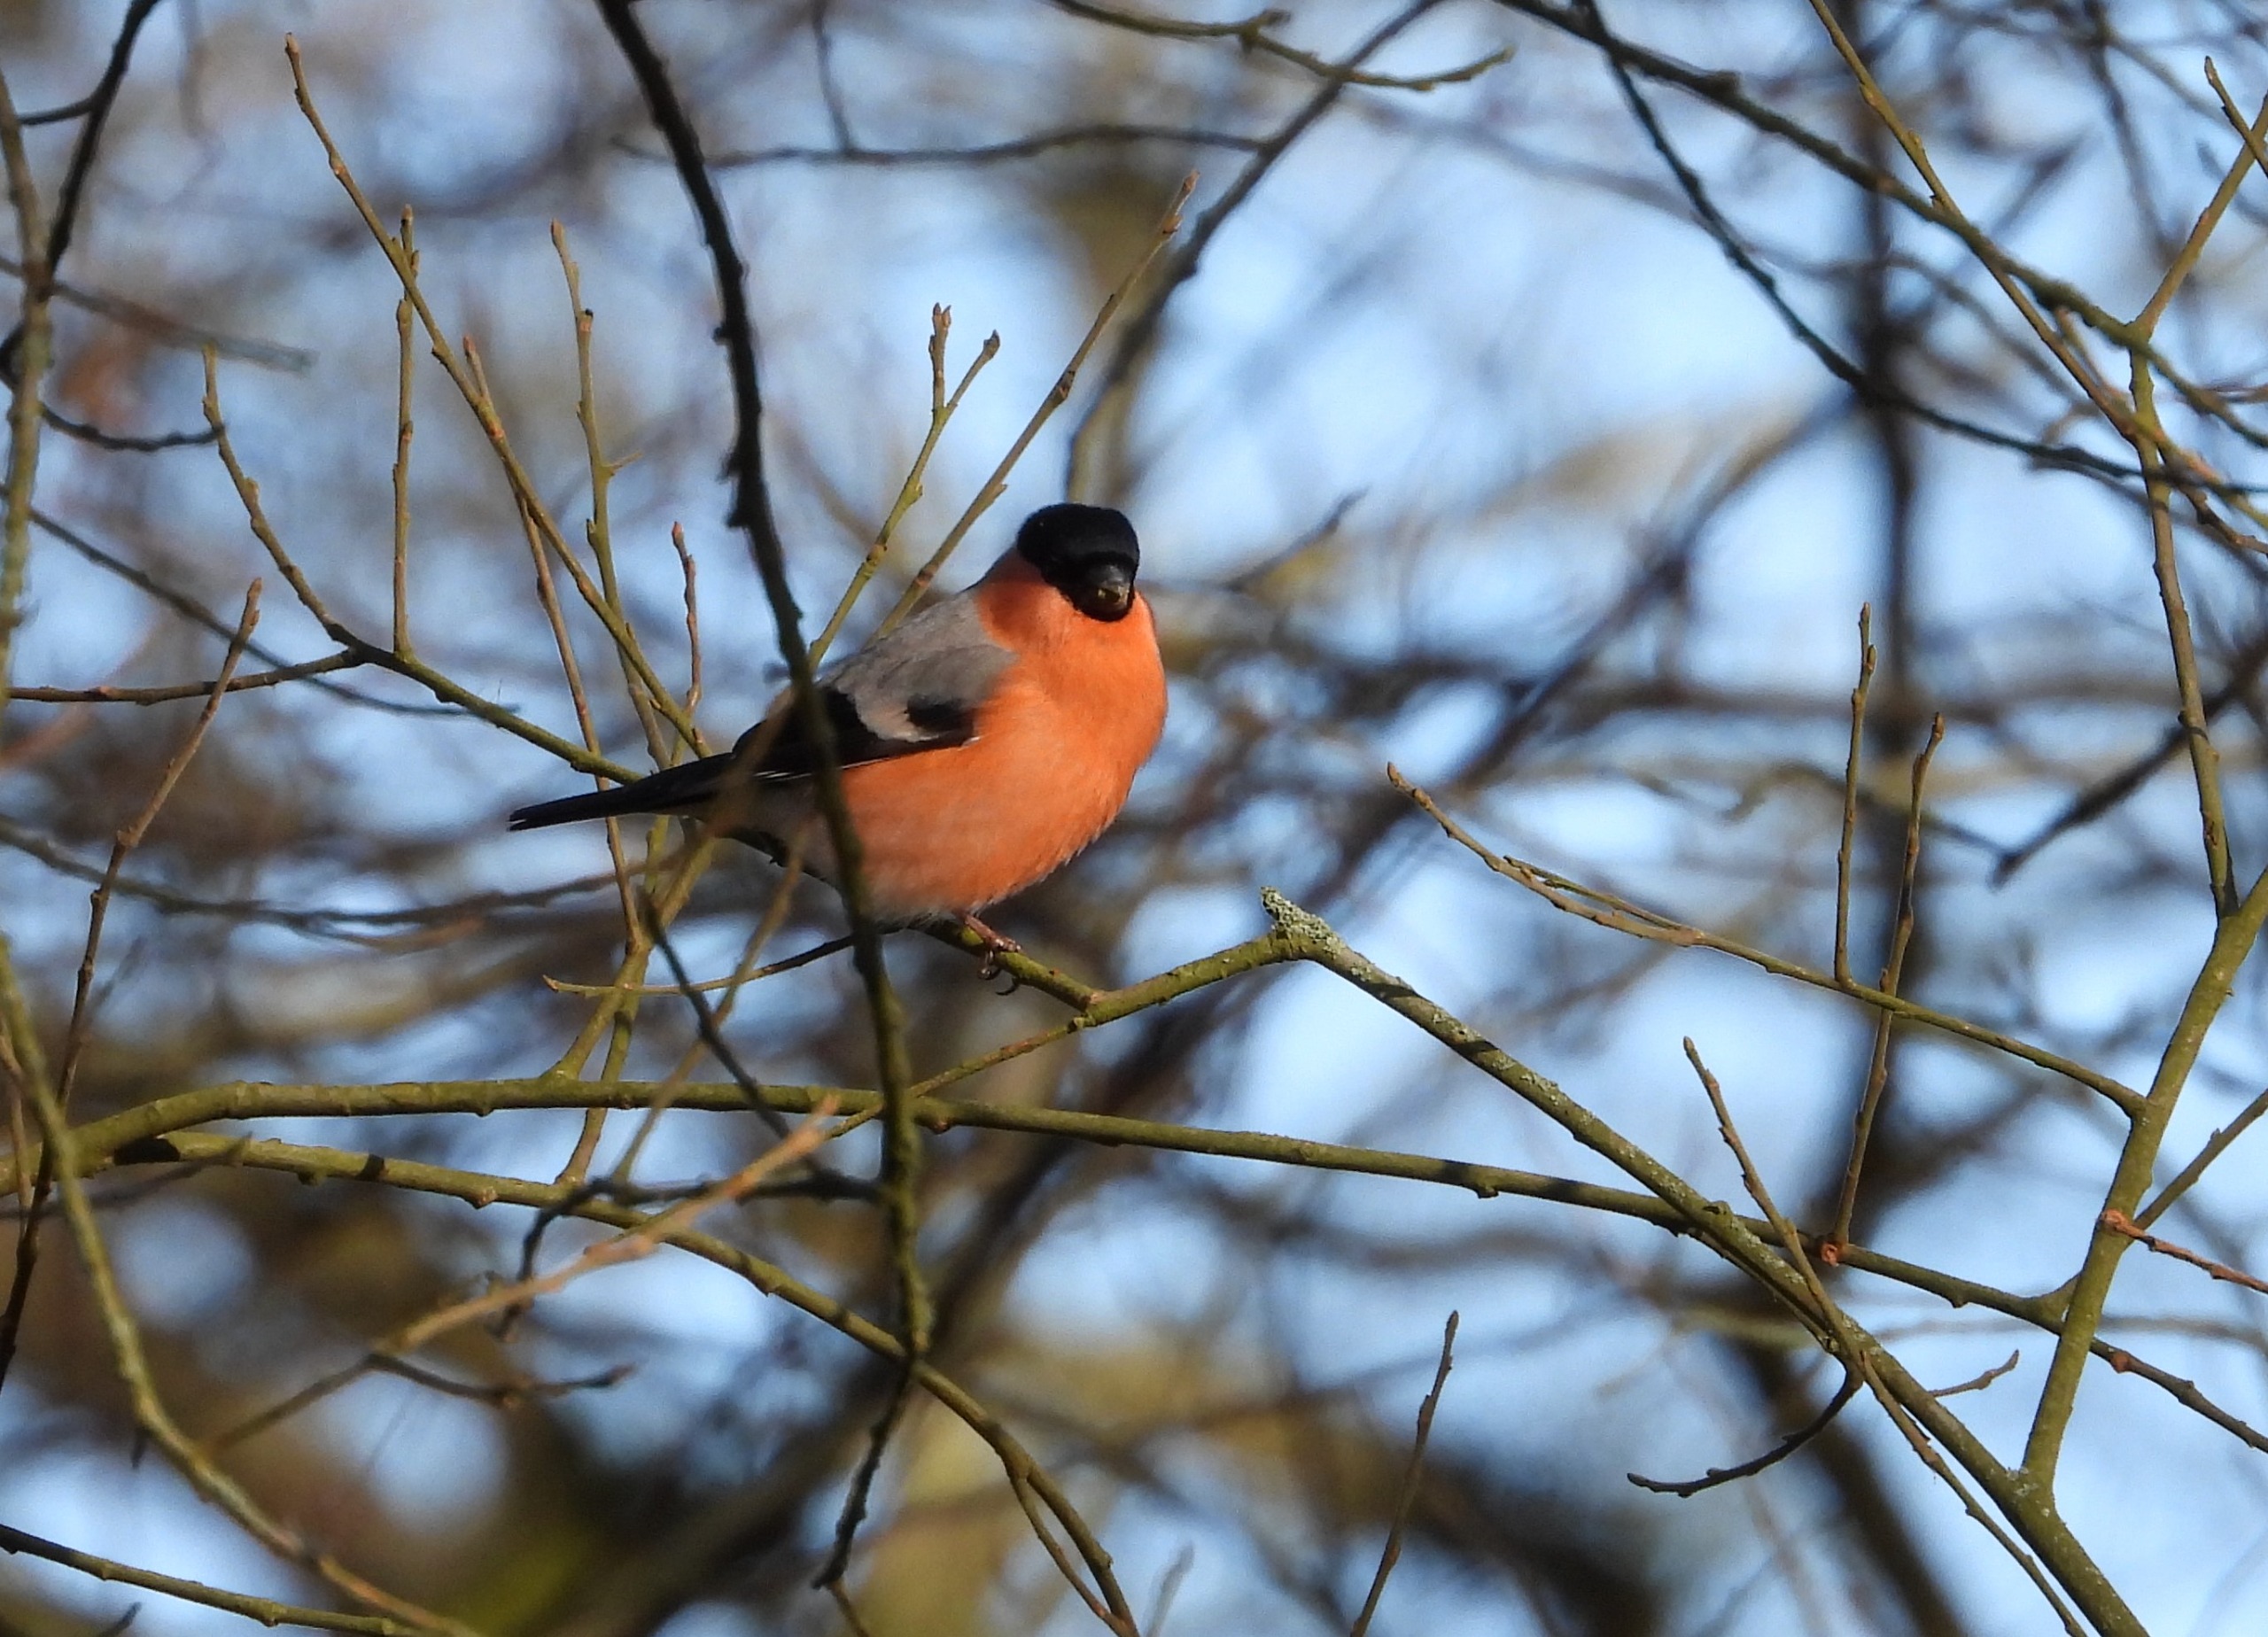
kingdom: Animalia
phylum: Chordata
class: Aves
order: Passeriformes
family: Fringillidae
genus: Pyrrhula
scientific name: Pyrrhula pyrrhula
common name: Dompap
